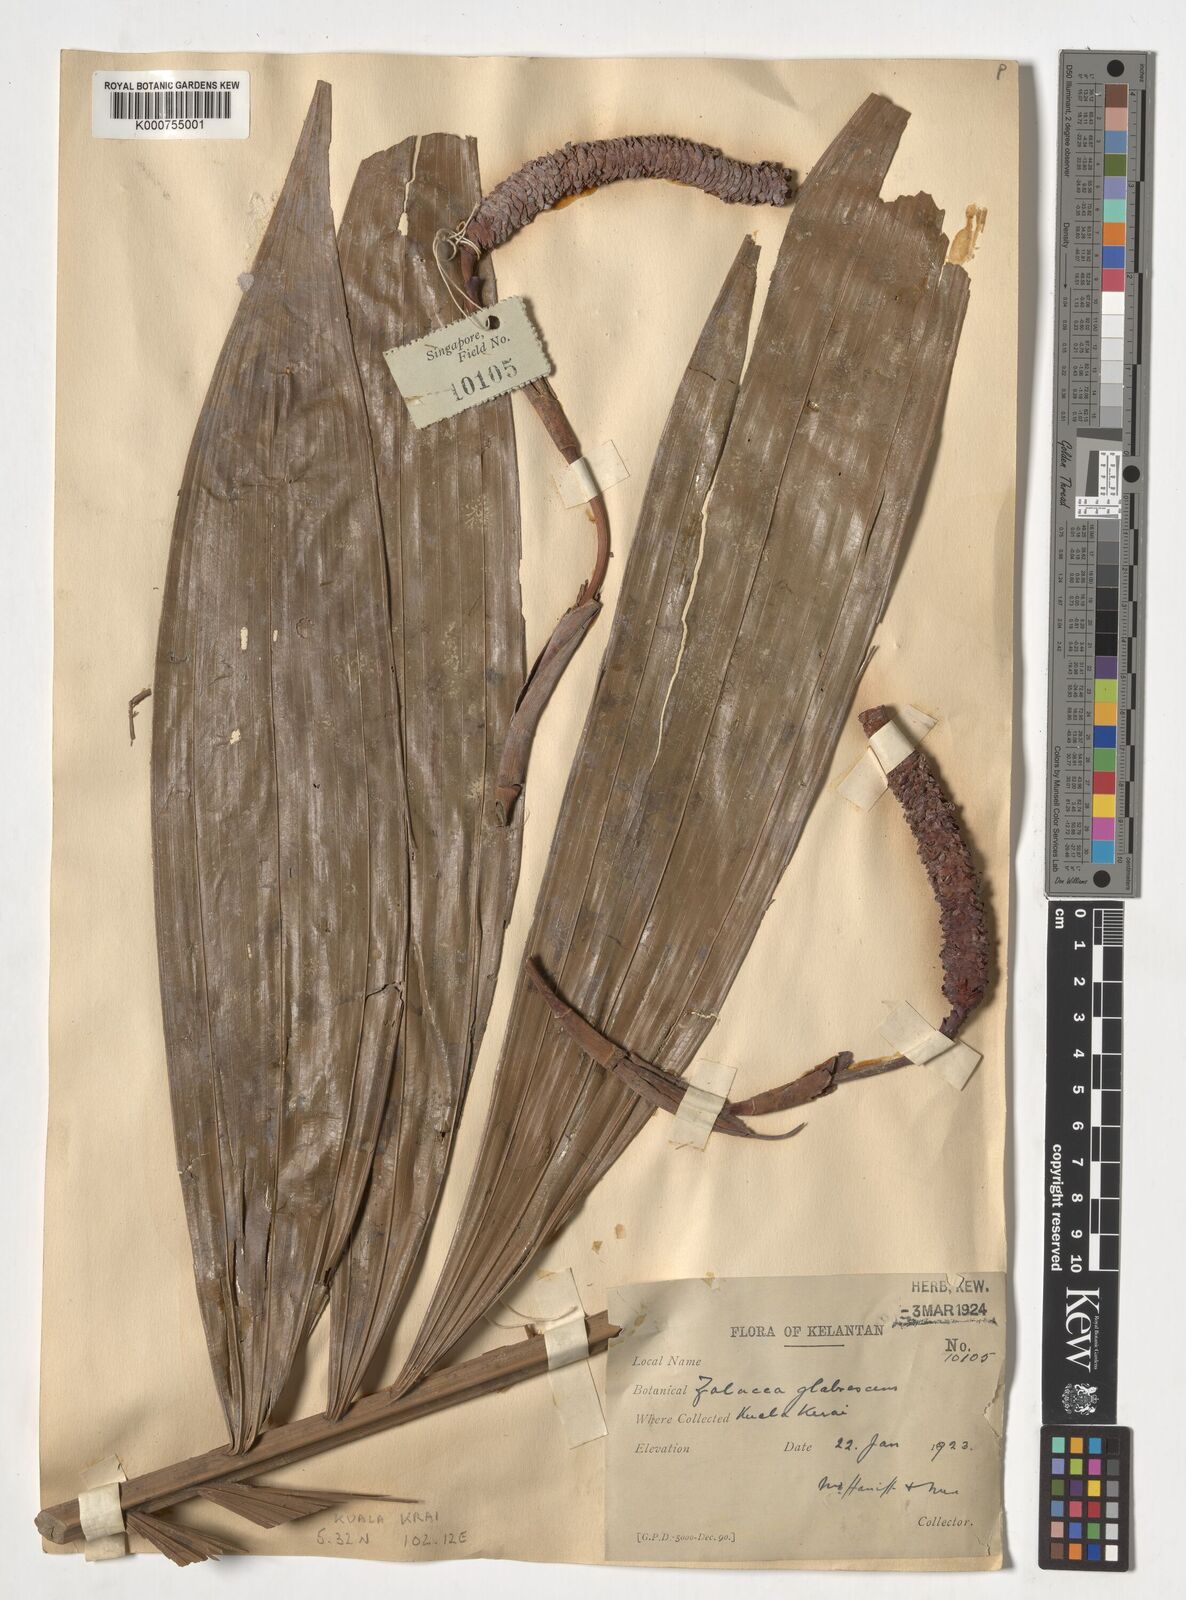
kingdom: Plantae
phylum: Tracheophyta
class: Magnoliopsida
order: Lamiales
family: Lamiaceae
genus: Vitex
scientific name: Vitex
